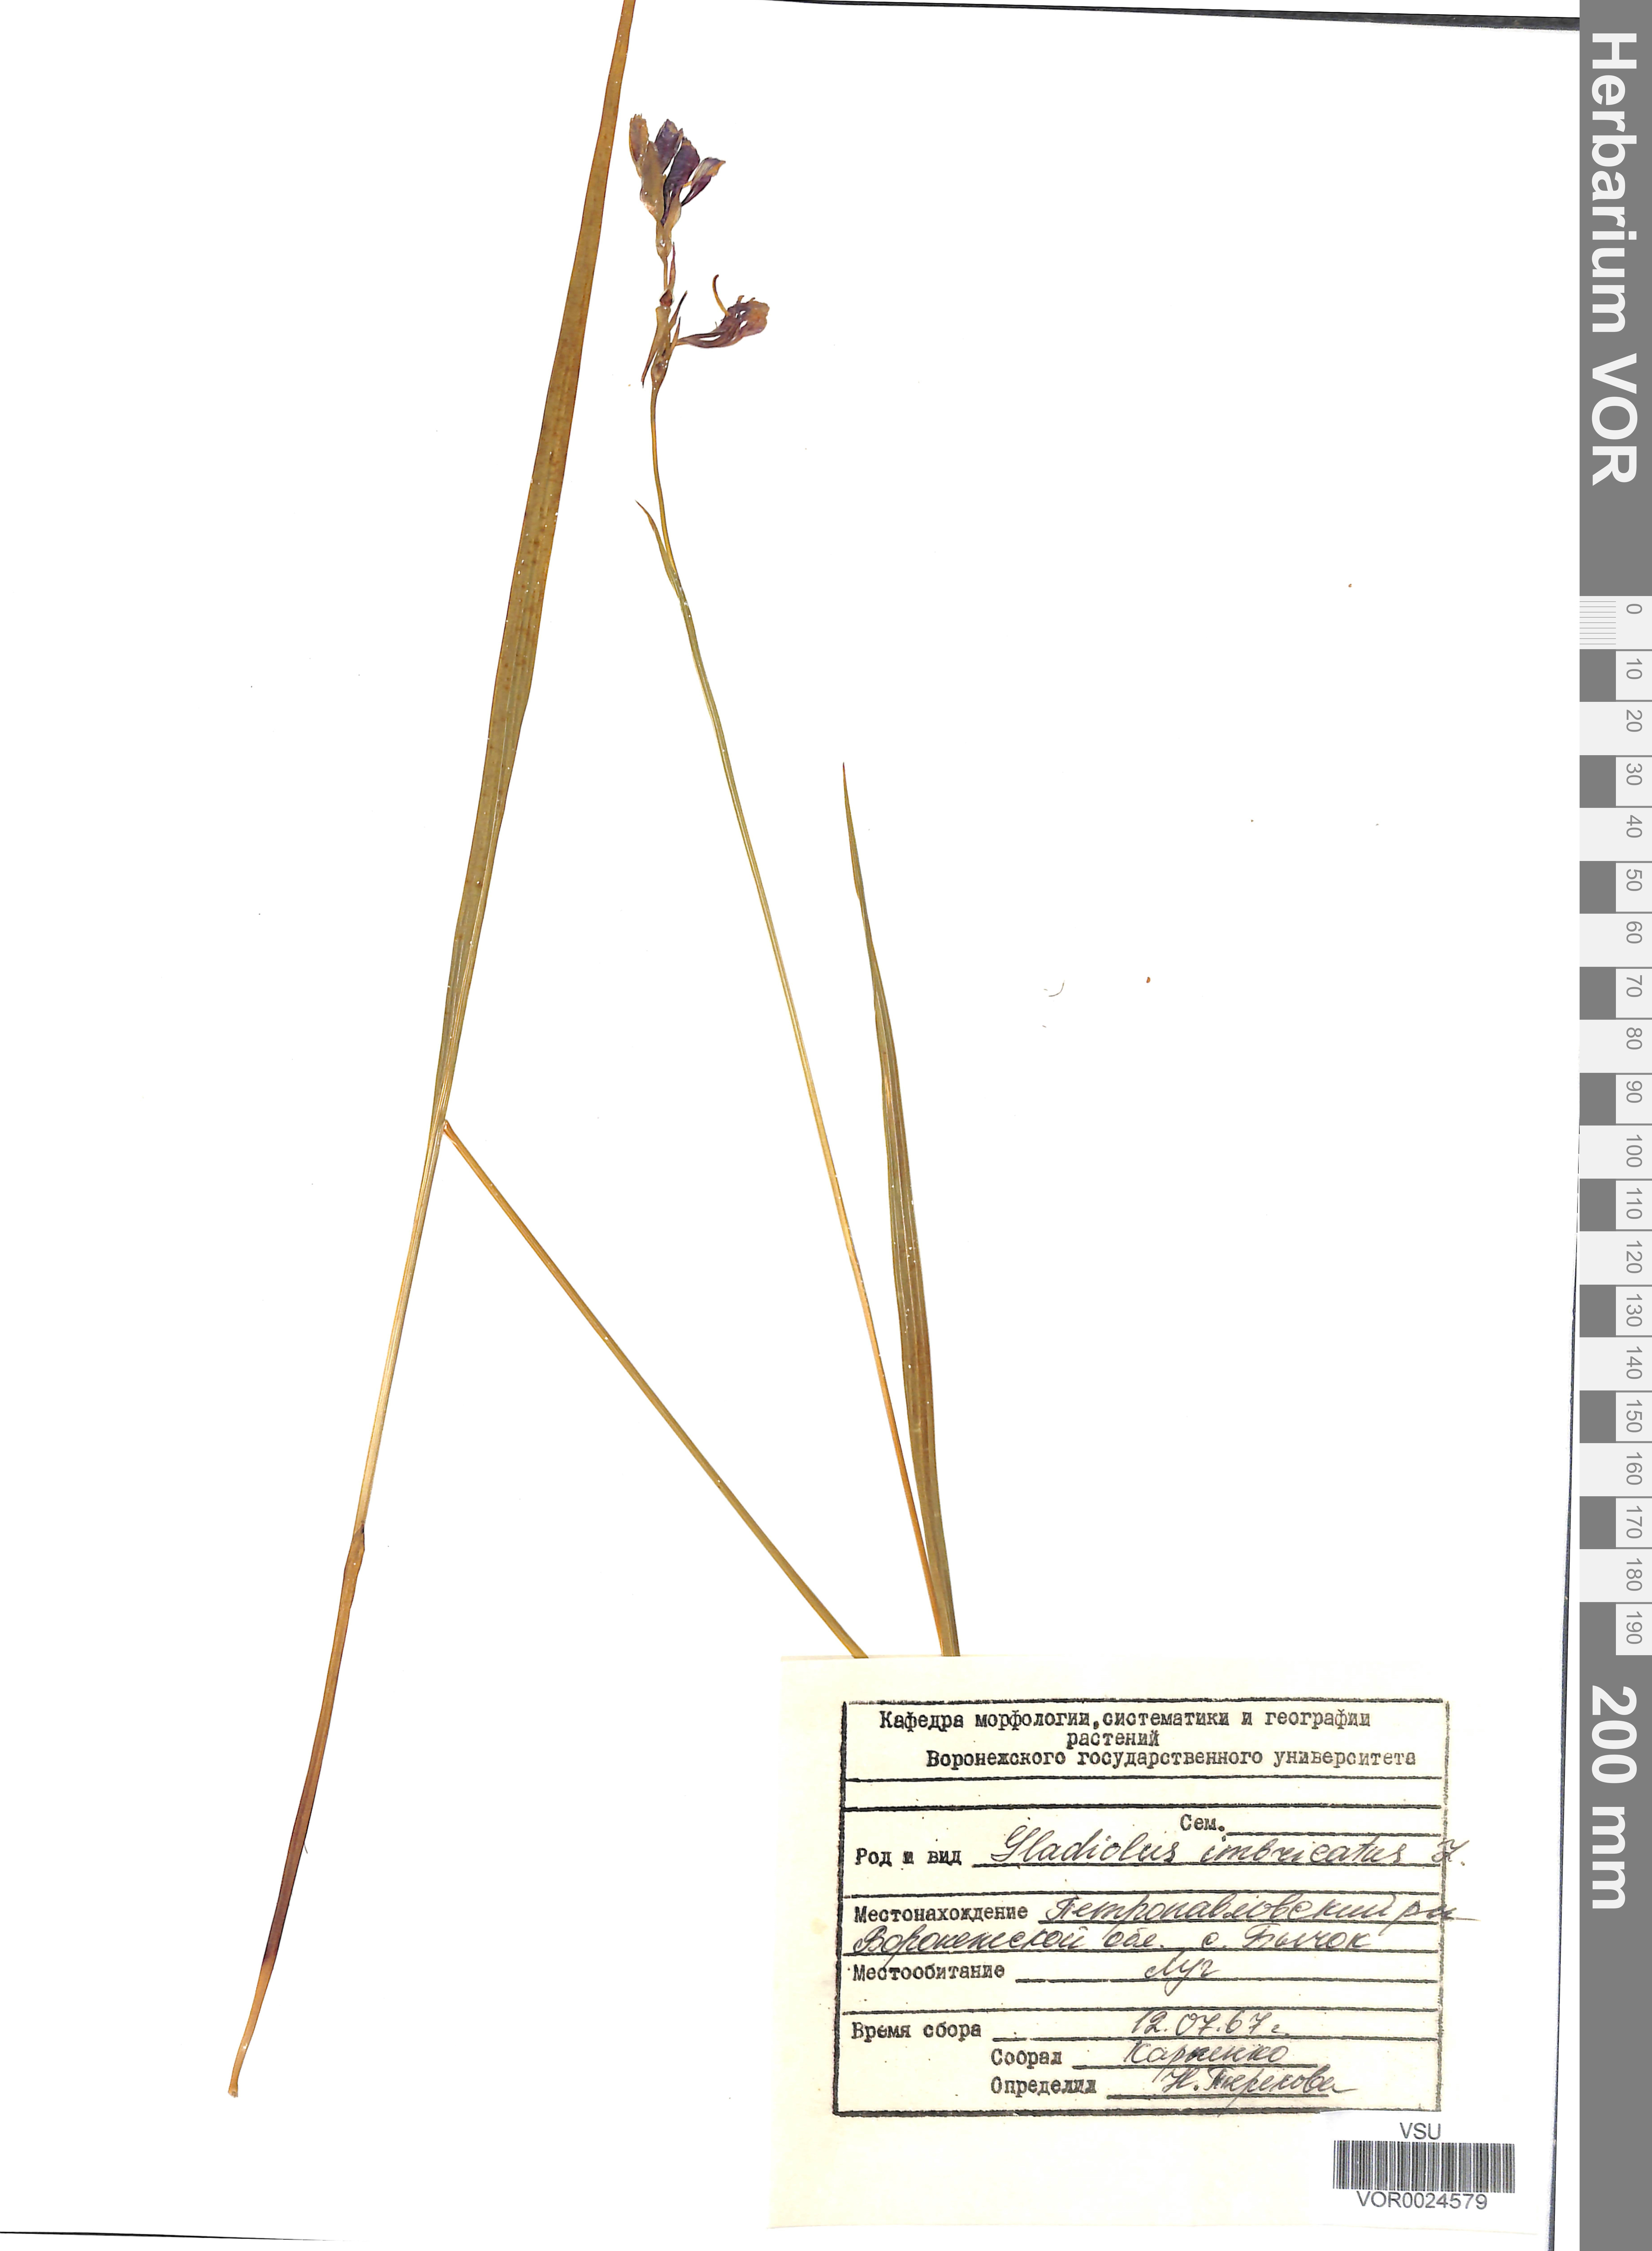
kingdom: Plantae
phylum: Tracheophyta
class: Liliopsida
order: Asparagales
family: Iridaceae
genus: Gladiolus
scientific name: Gladiolus tenuis
